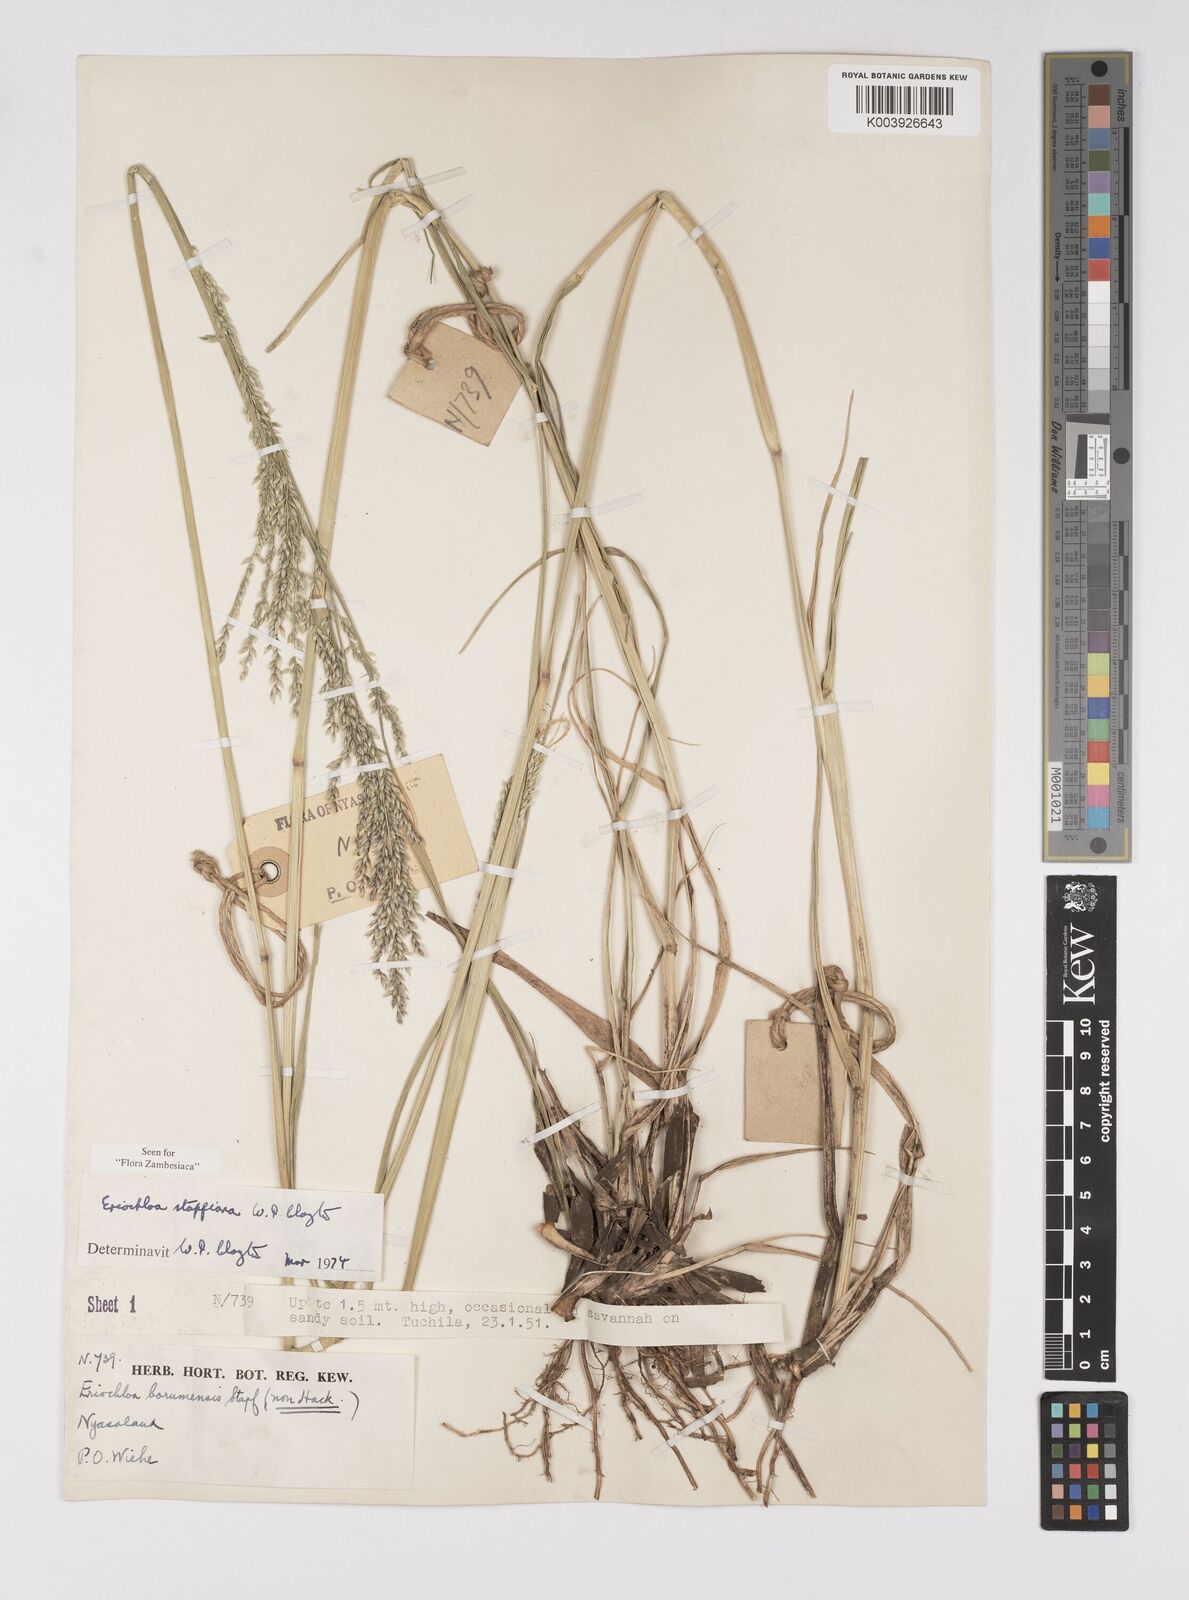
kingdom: Plantae
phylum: Tracheophyta
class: Liliopsida
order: Poales
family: Poaceae
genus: Eriochloa
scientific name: Eriochloa stapfiana
